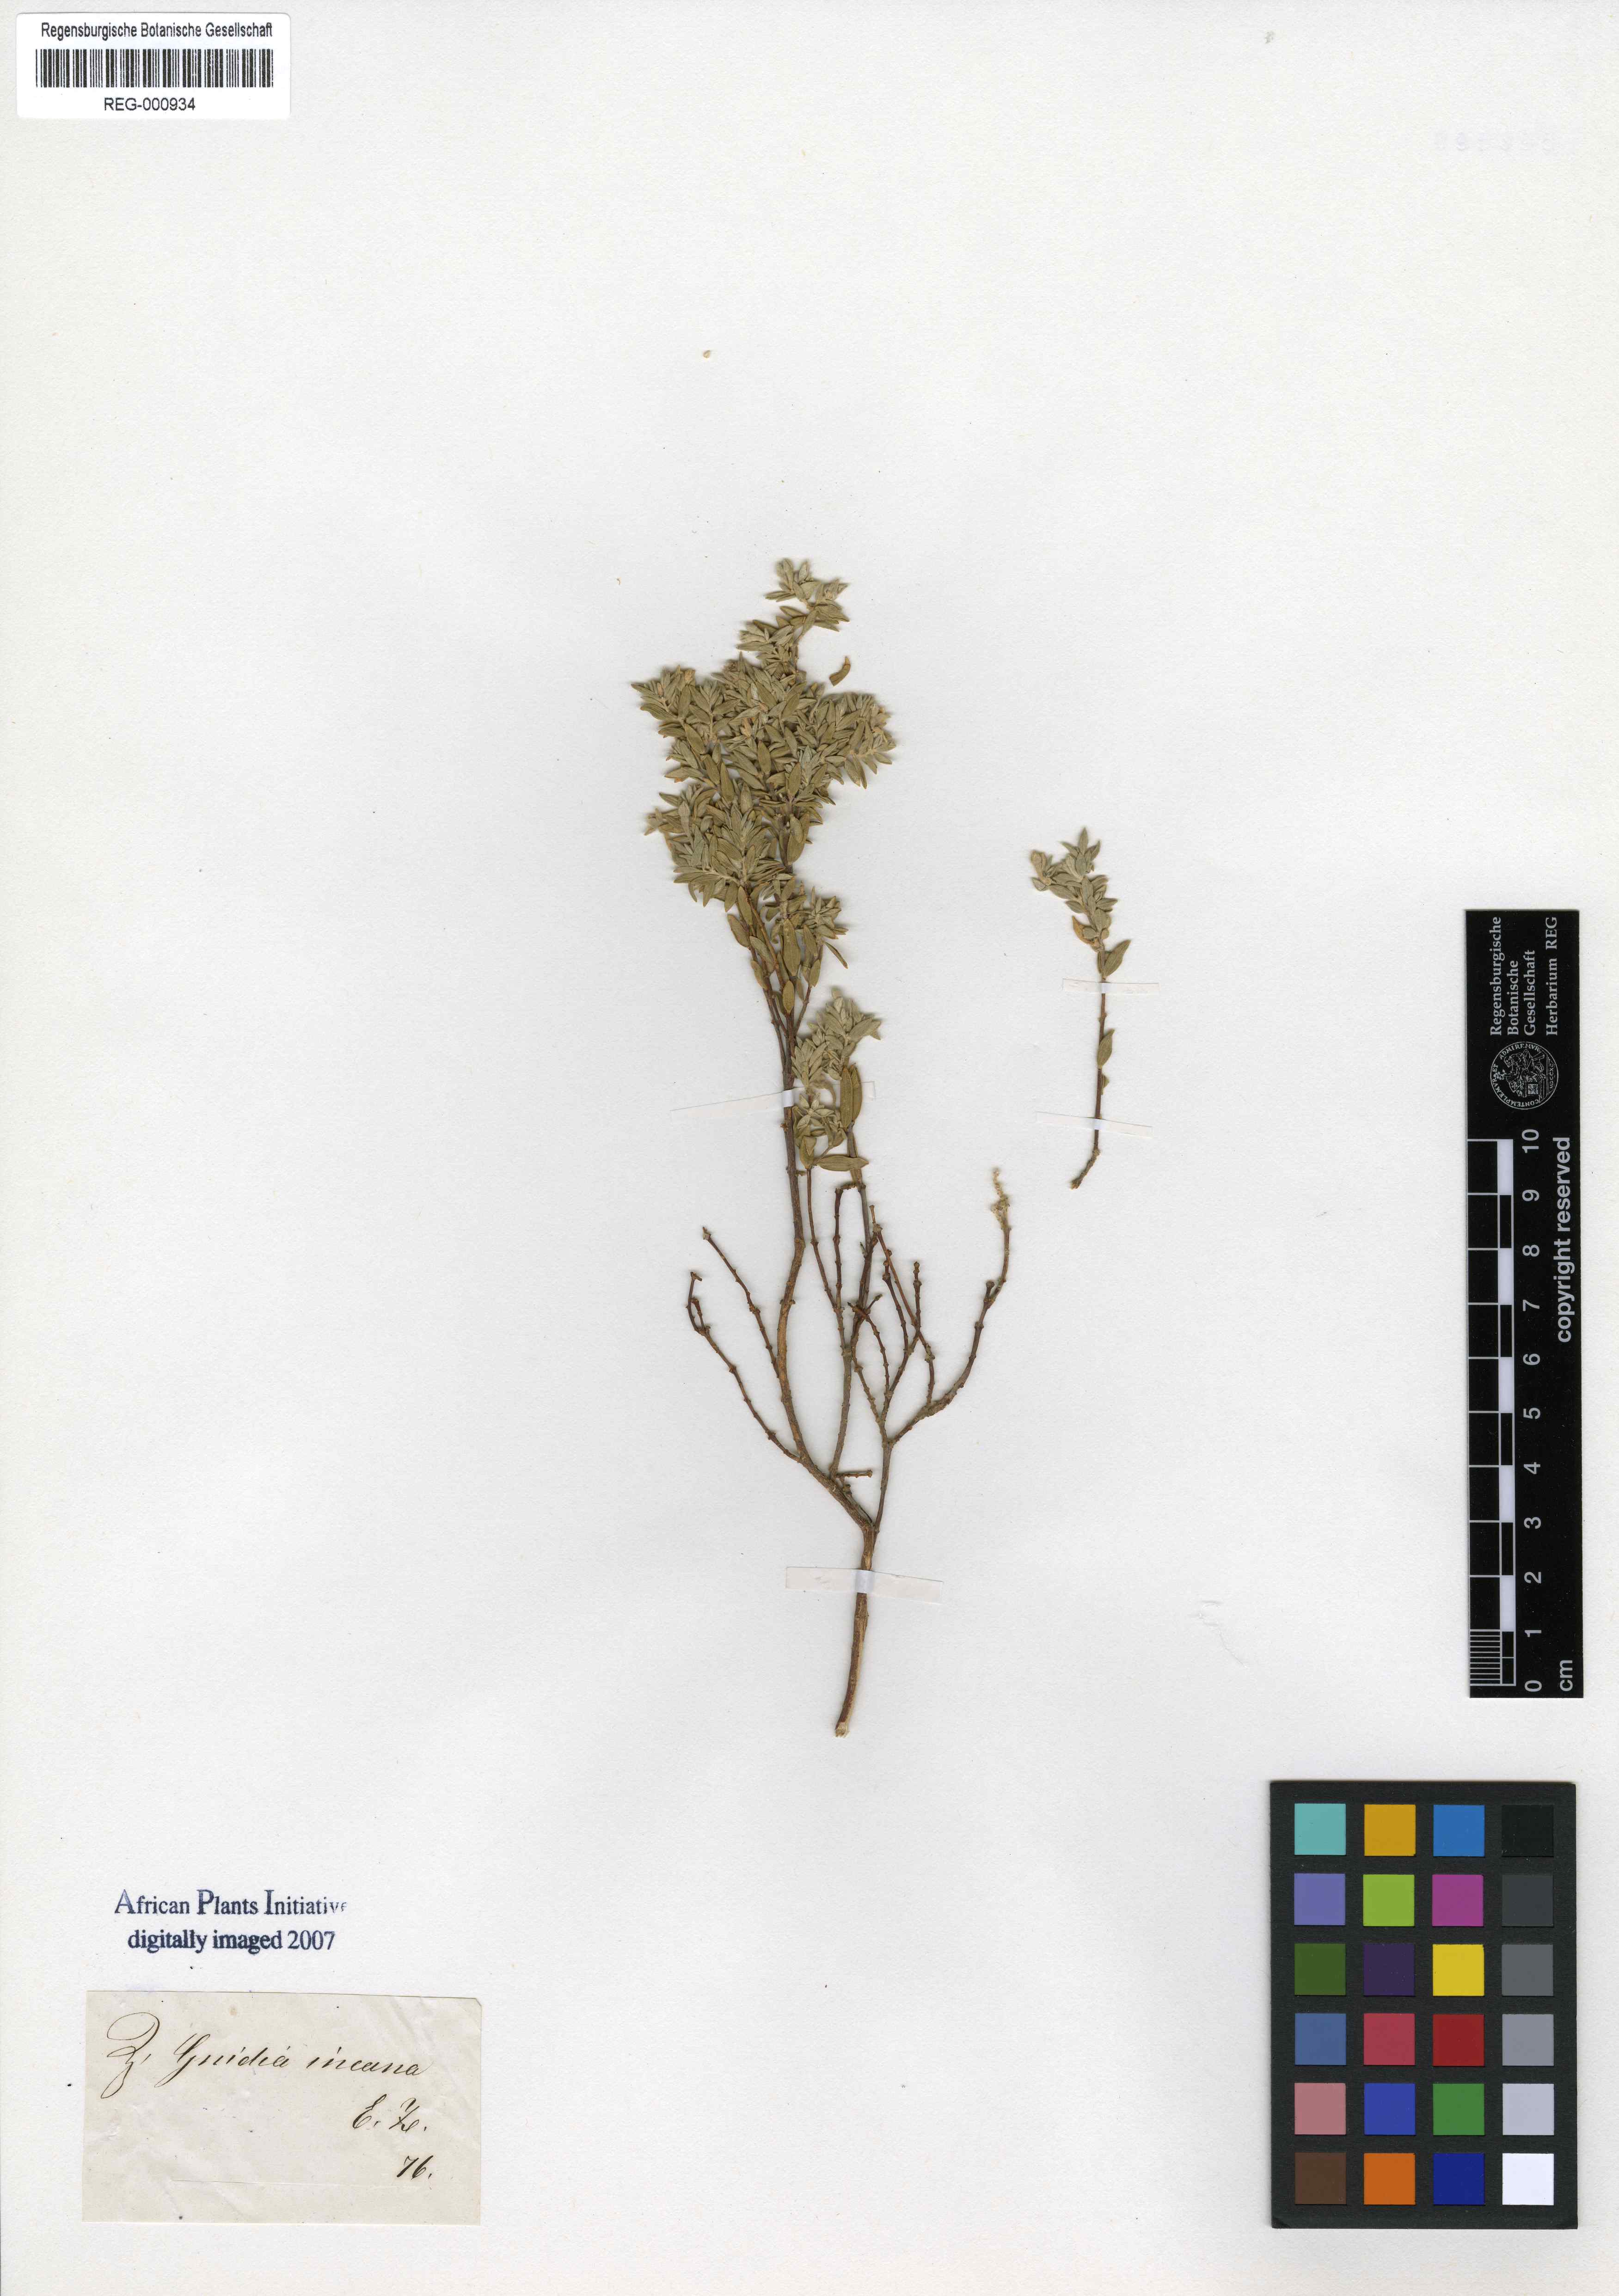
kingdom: Plantae
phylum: Tracheophyta
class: Magnoliopsida
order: Malvales
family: Thymelaeaceae
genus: Gnidia
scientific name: Gnidia imbricata
